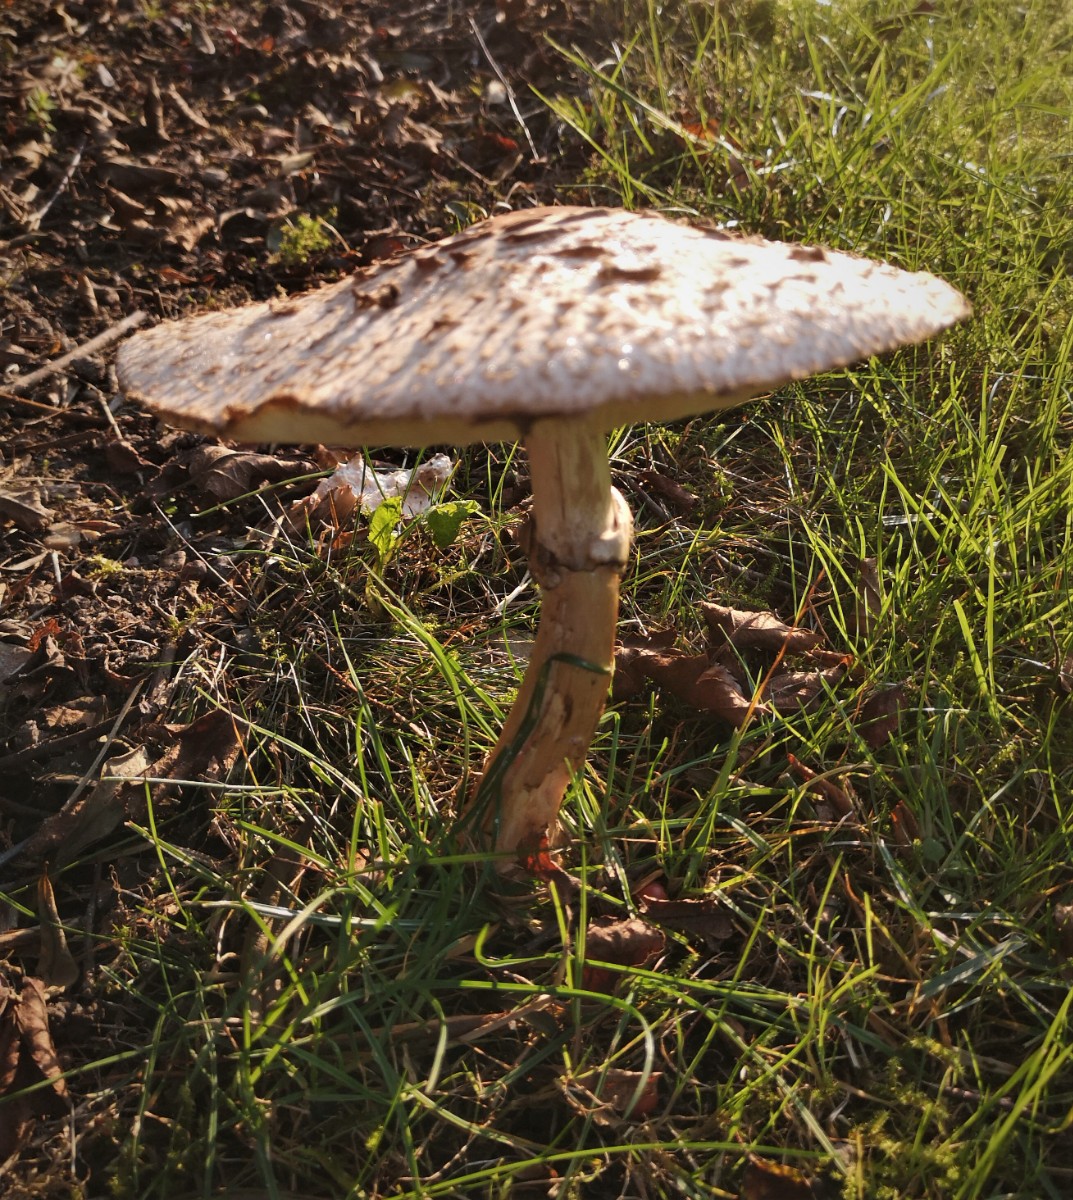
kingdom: Fungi
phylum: Basidiomycota
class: Agaricomycetes
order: Agaricales
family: Agaricaceae
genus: Chlorophyllum
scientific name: Chlorophyllum
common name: rabarberhat
